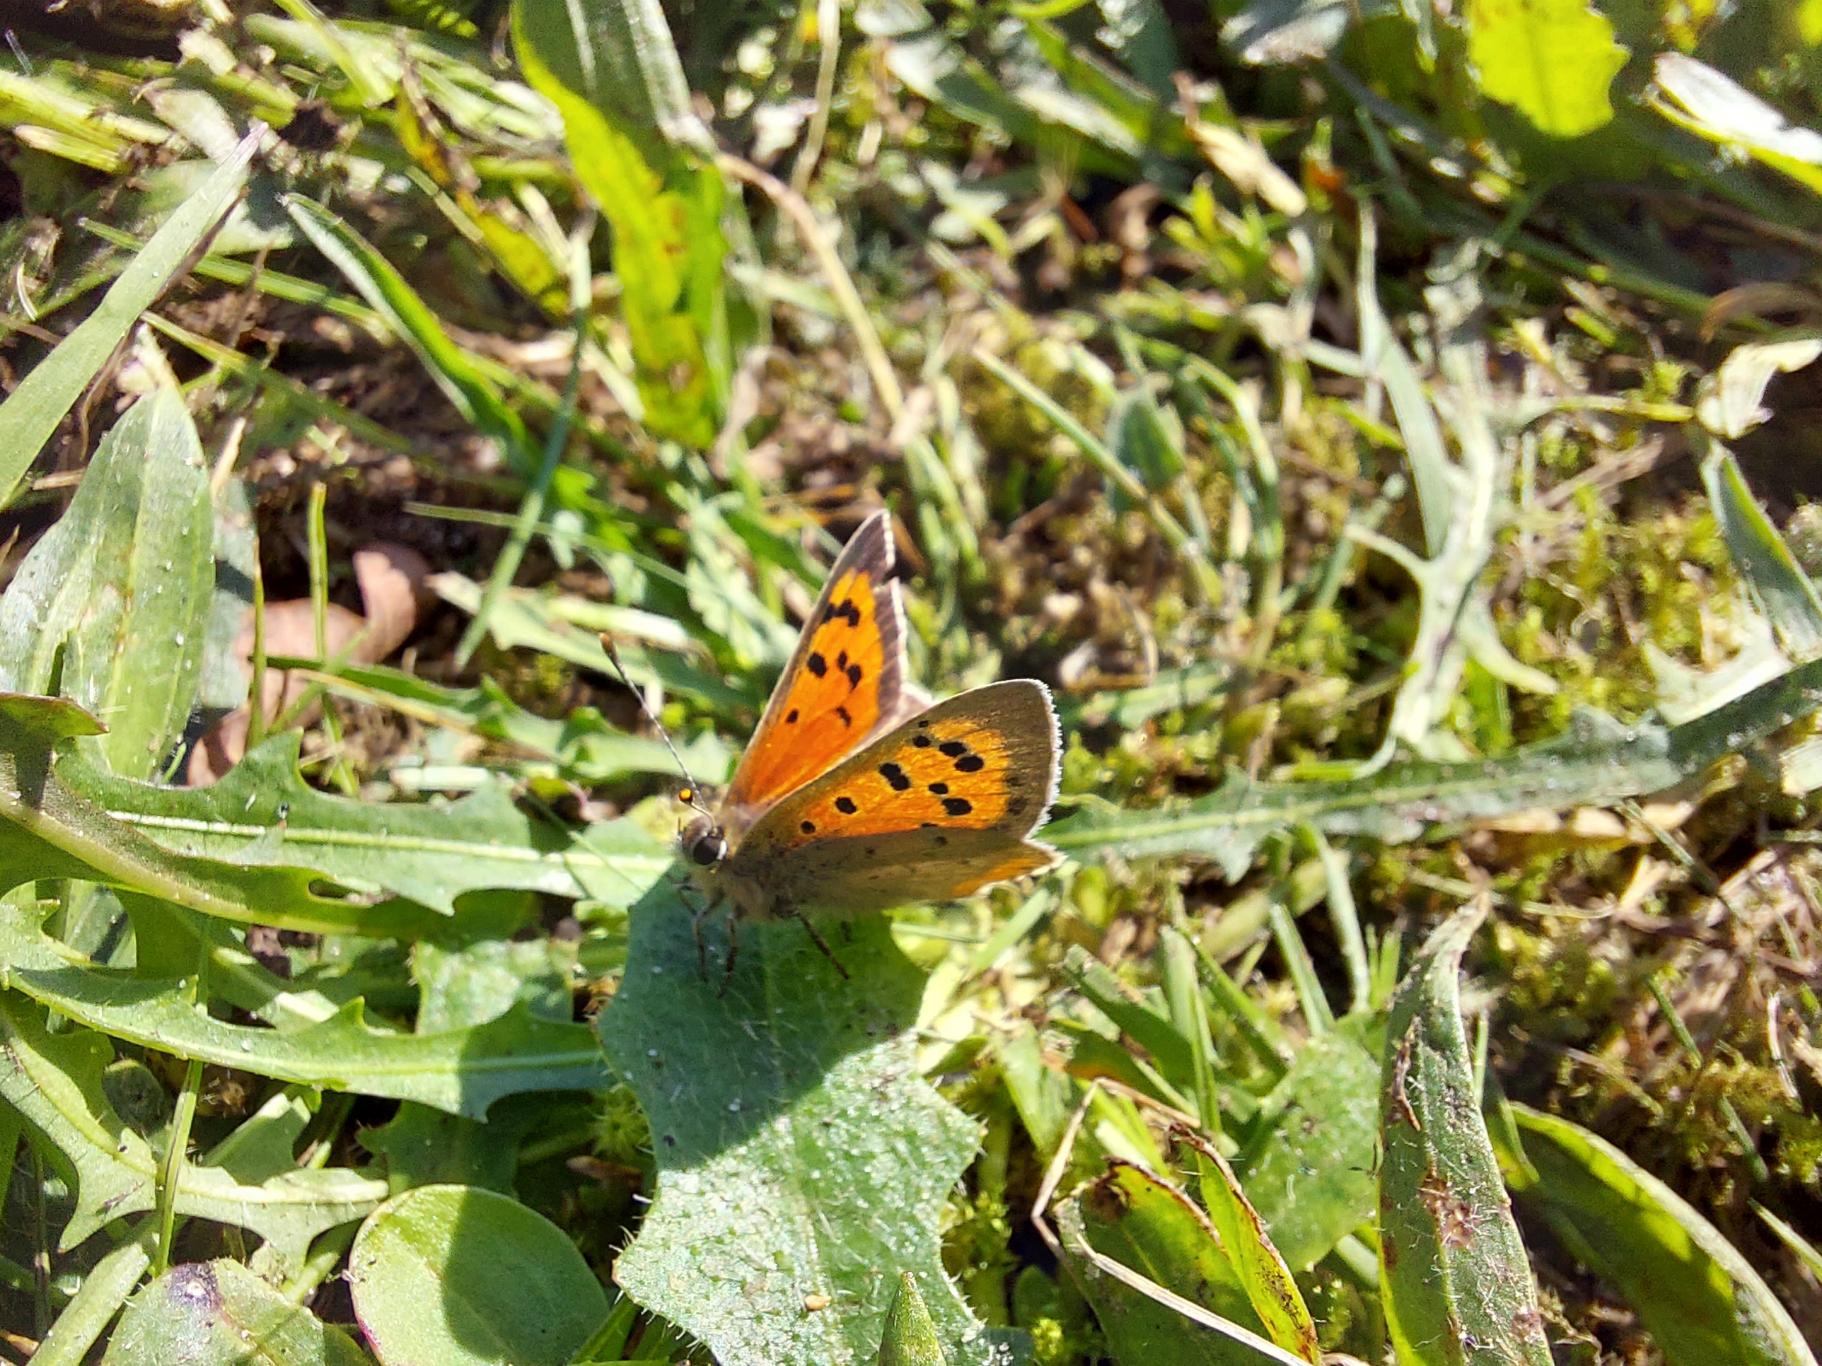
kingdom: Animalia
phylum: Arthropoda
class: Insecta
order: Lepidoptera
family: Lycaenidae
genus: Lycaena
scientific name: Lycaena phlaeas
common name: Lille ildfugl
